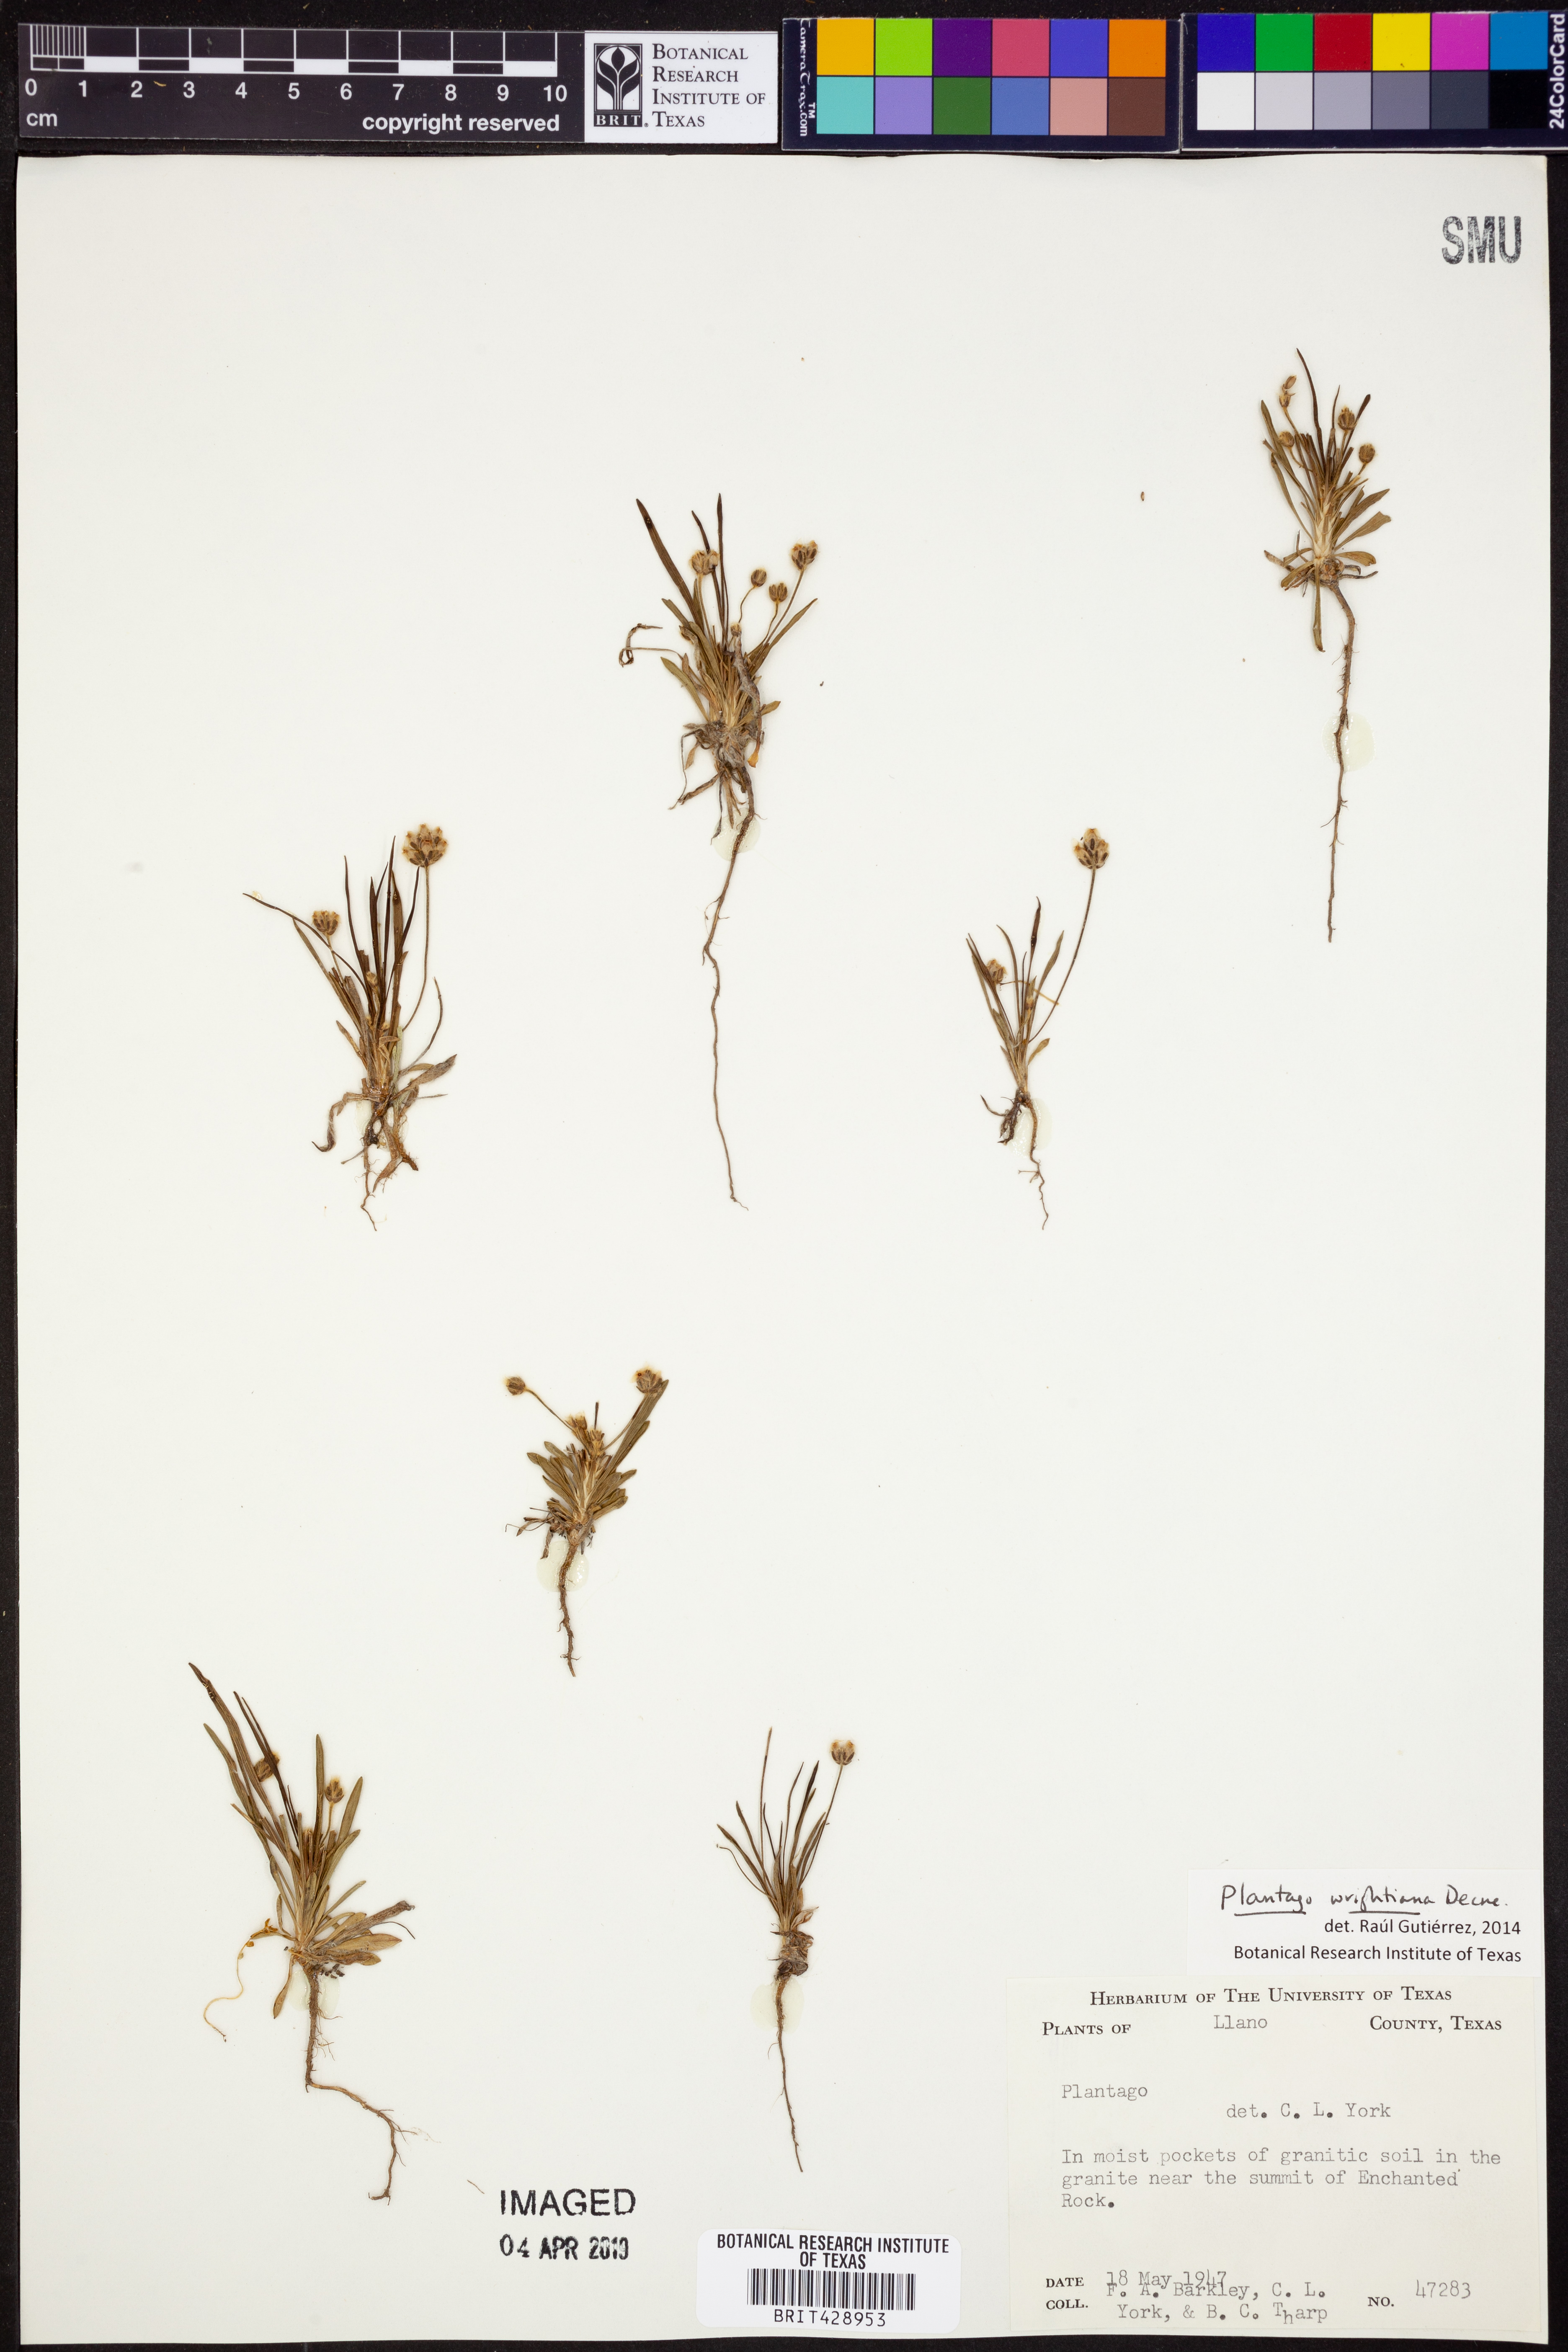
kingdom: Plantae
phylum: Tracheophyta
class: Magnoliopsida
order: Lamiales
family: Plantaginaceae
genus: Plantago
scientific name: Plantago wrightiana
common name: Wright's plantain
